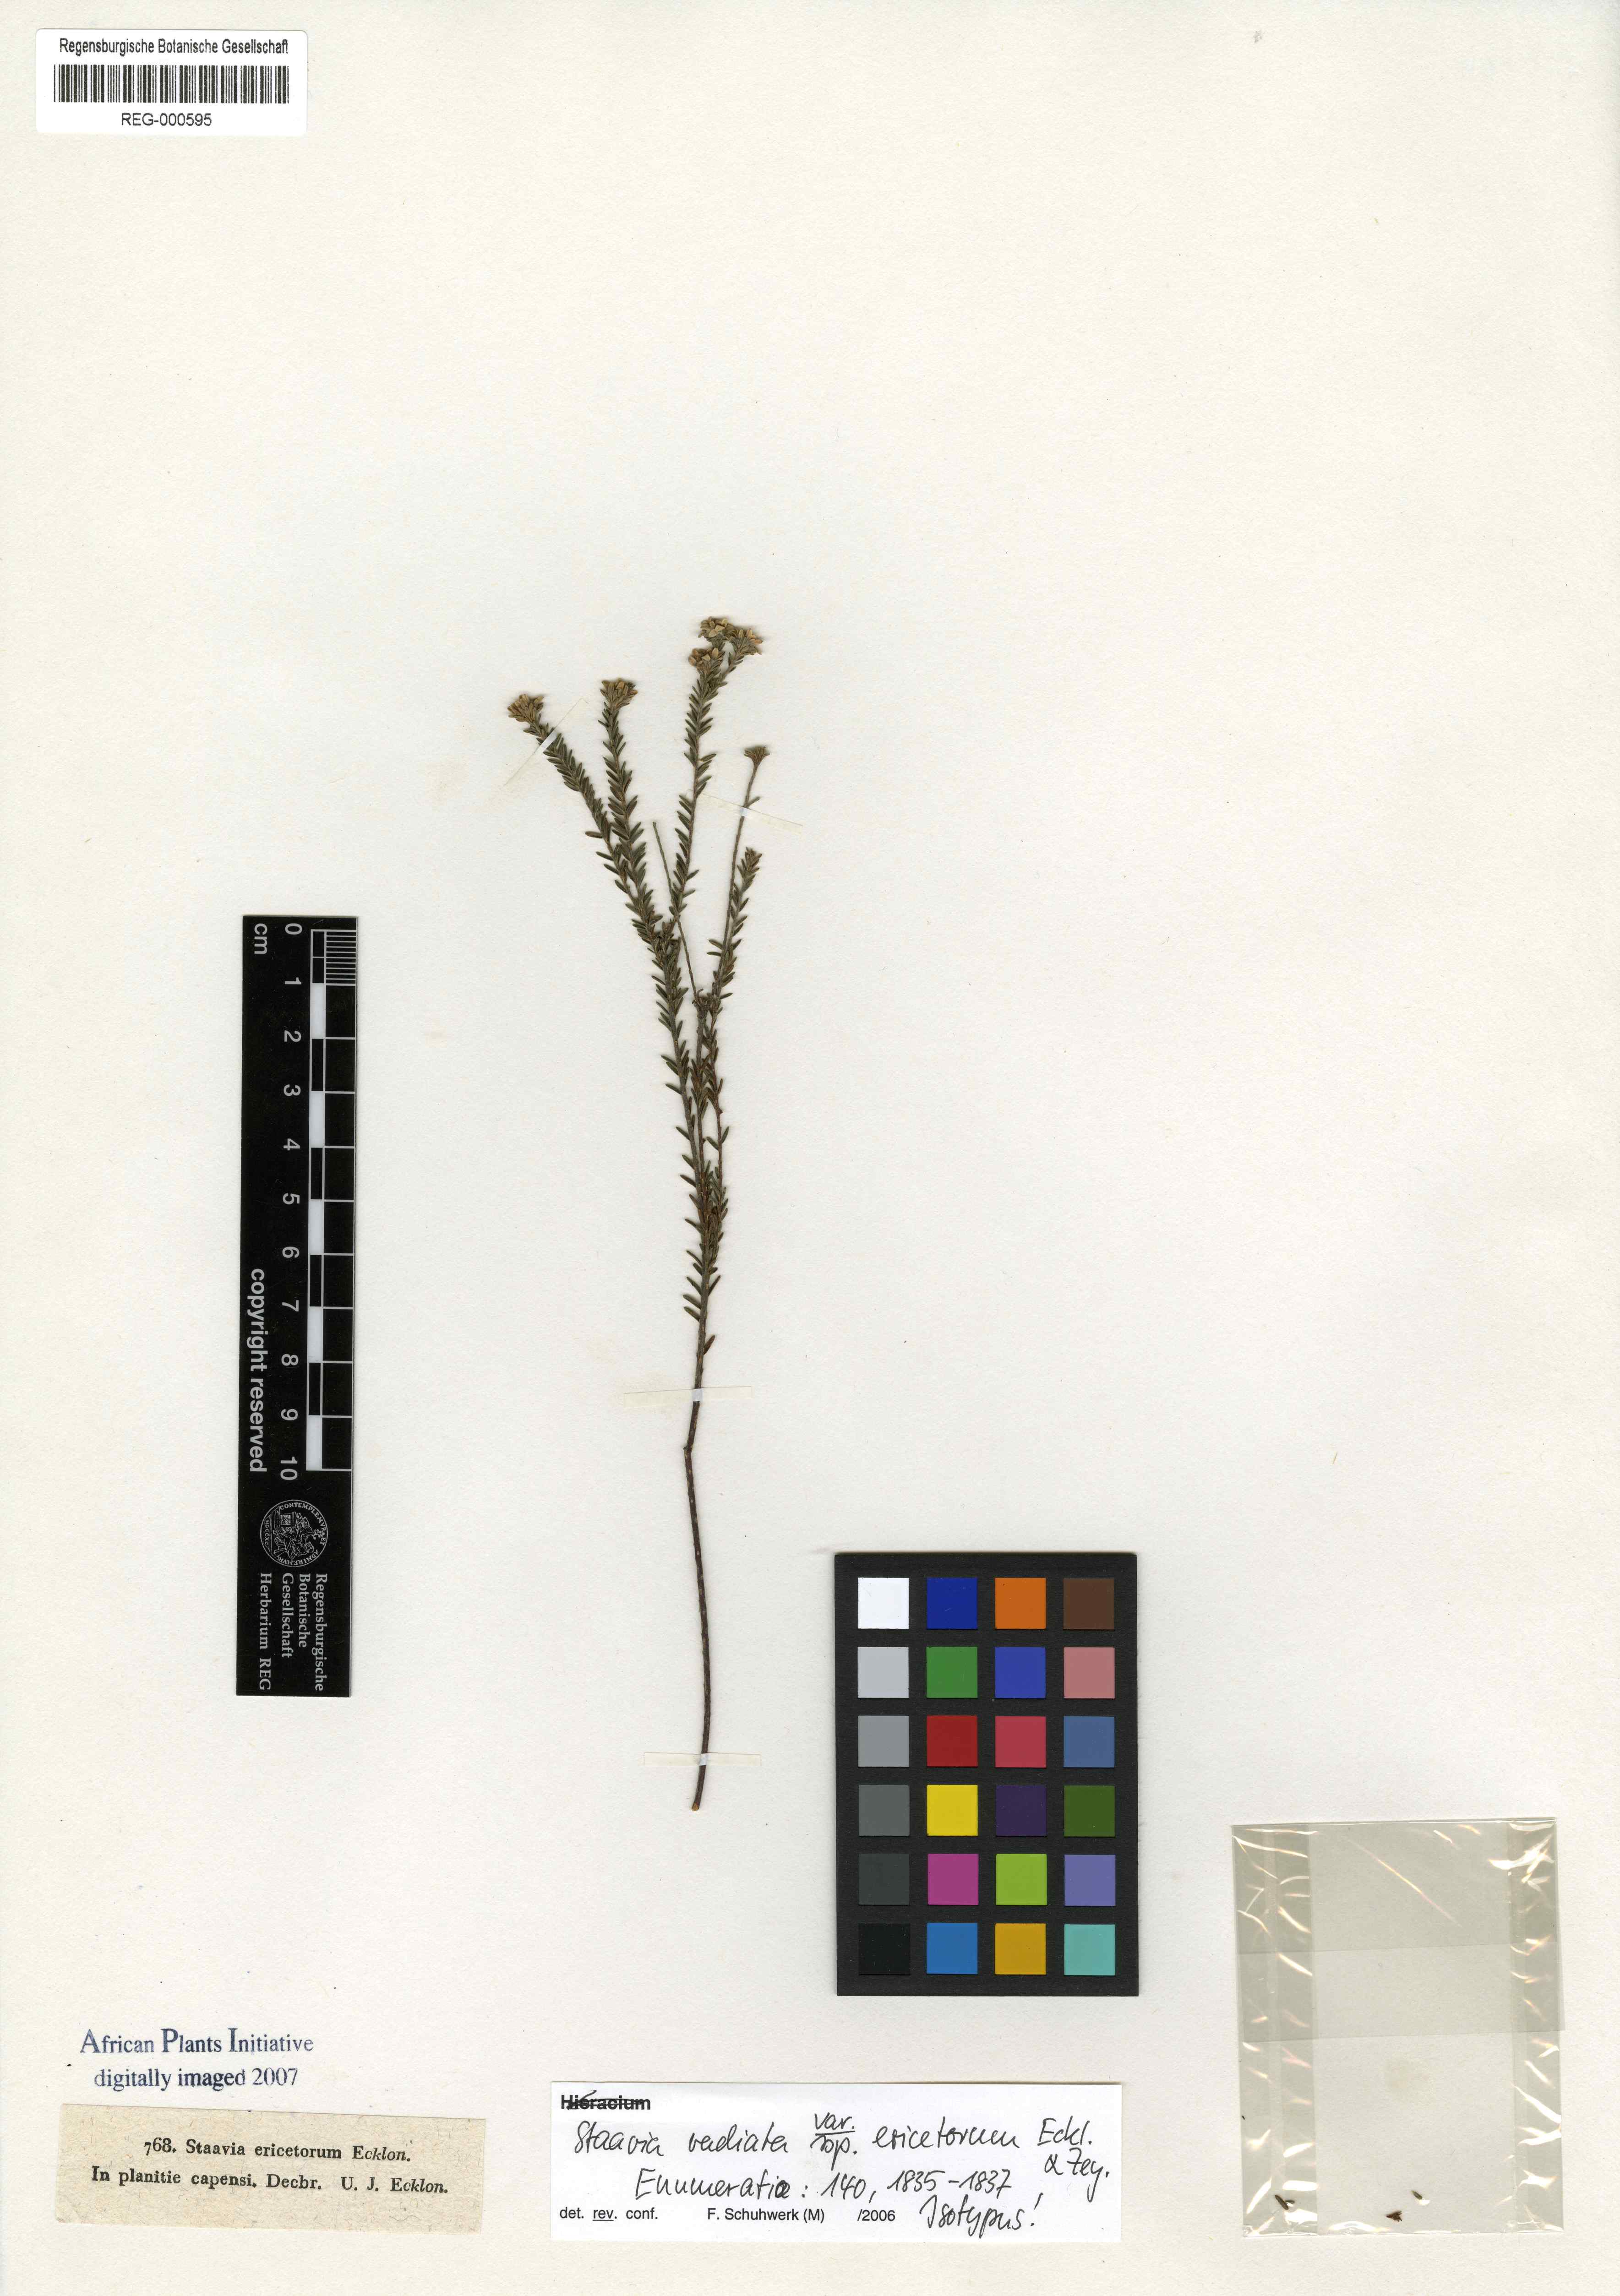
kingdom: Plantae
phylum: Tracheophyta
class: Magnoliopsida
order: Bruniales
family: Bruniaceae
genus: Staavia
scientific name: Staavia radiata
